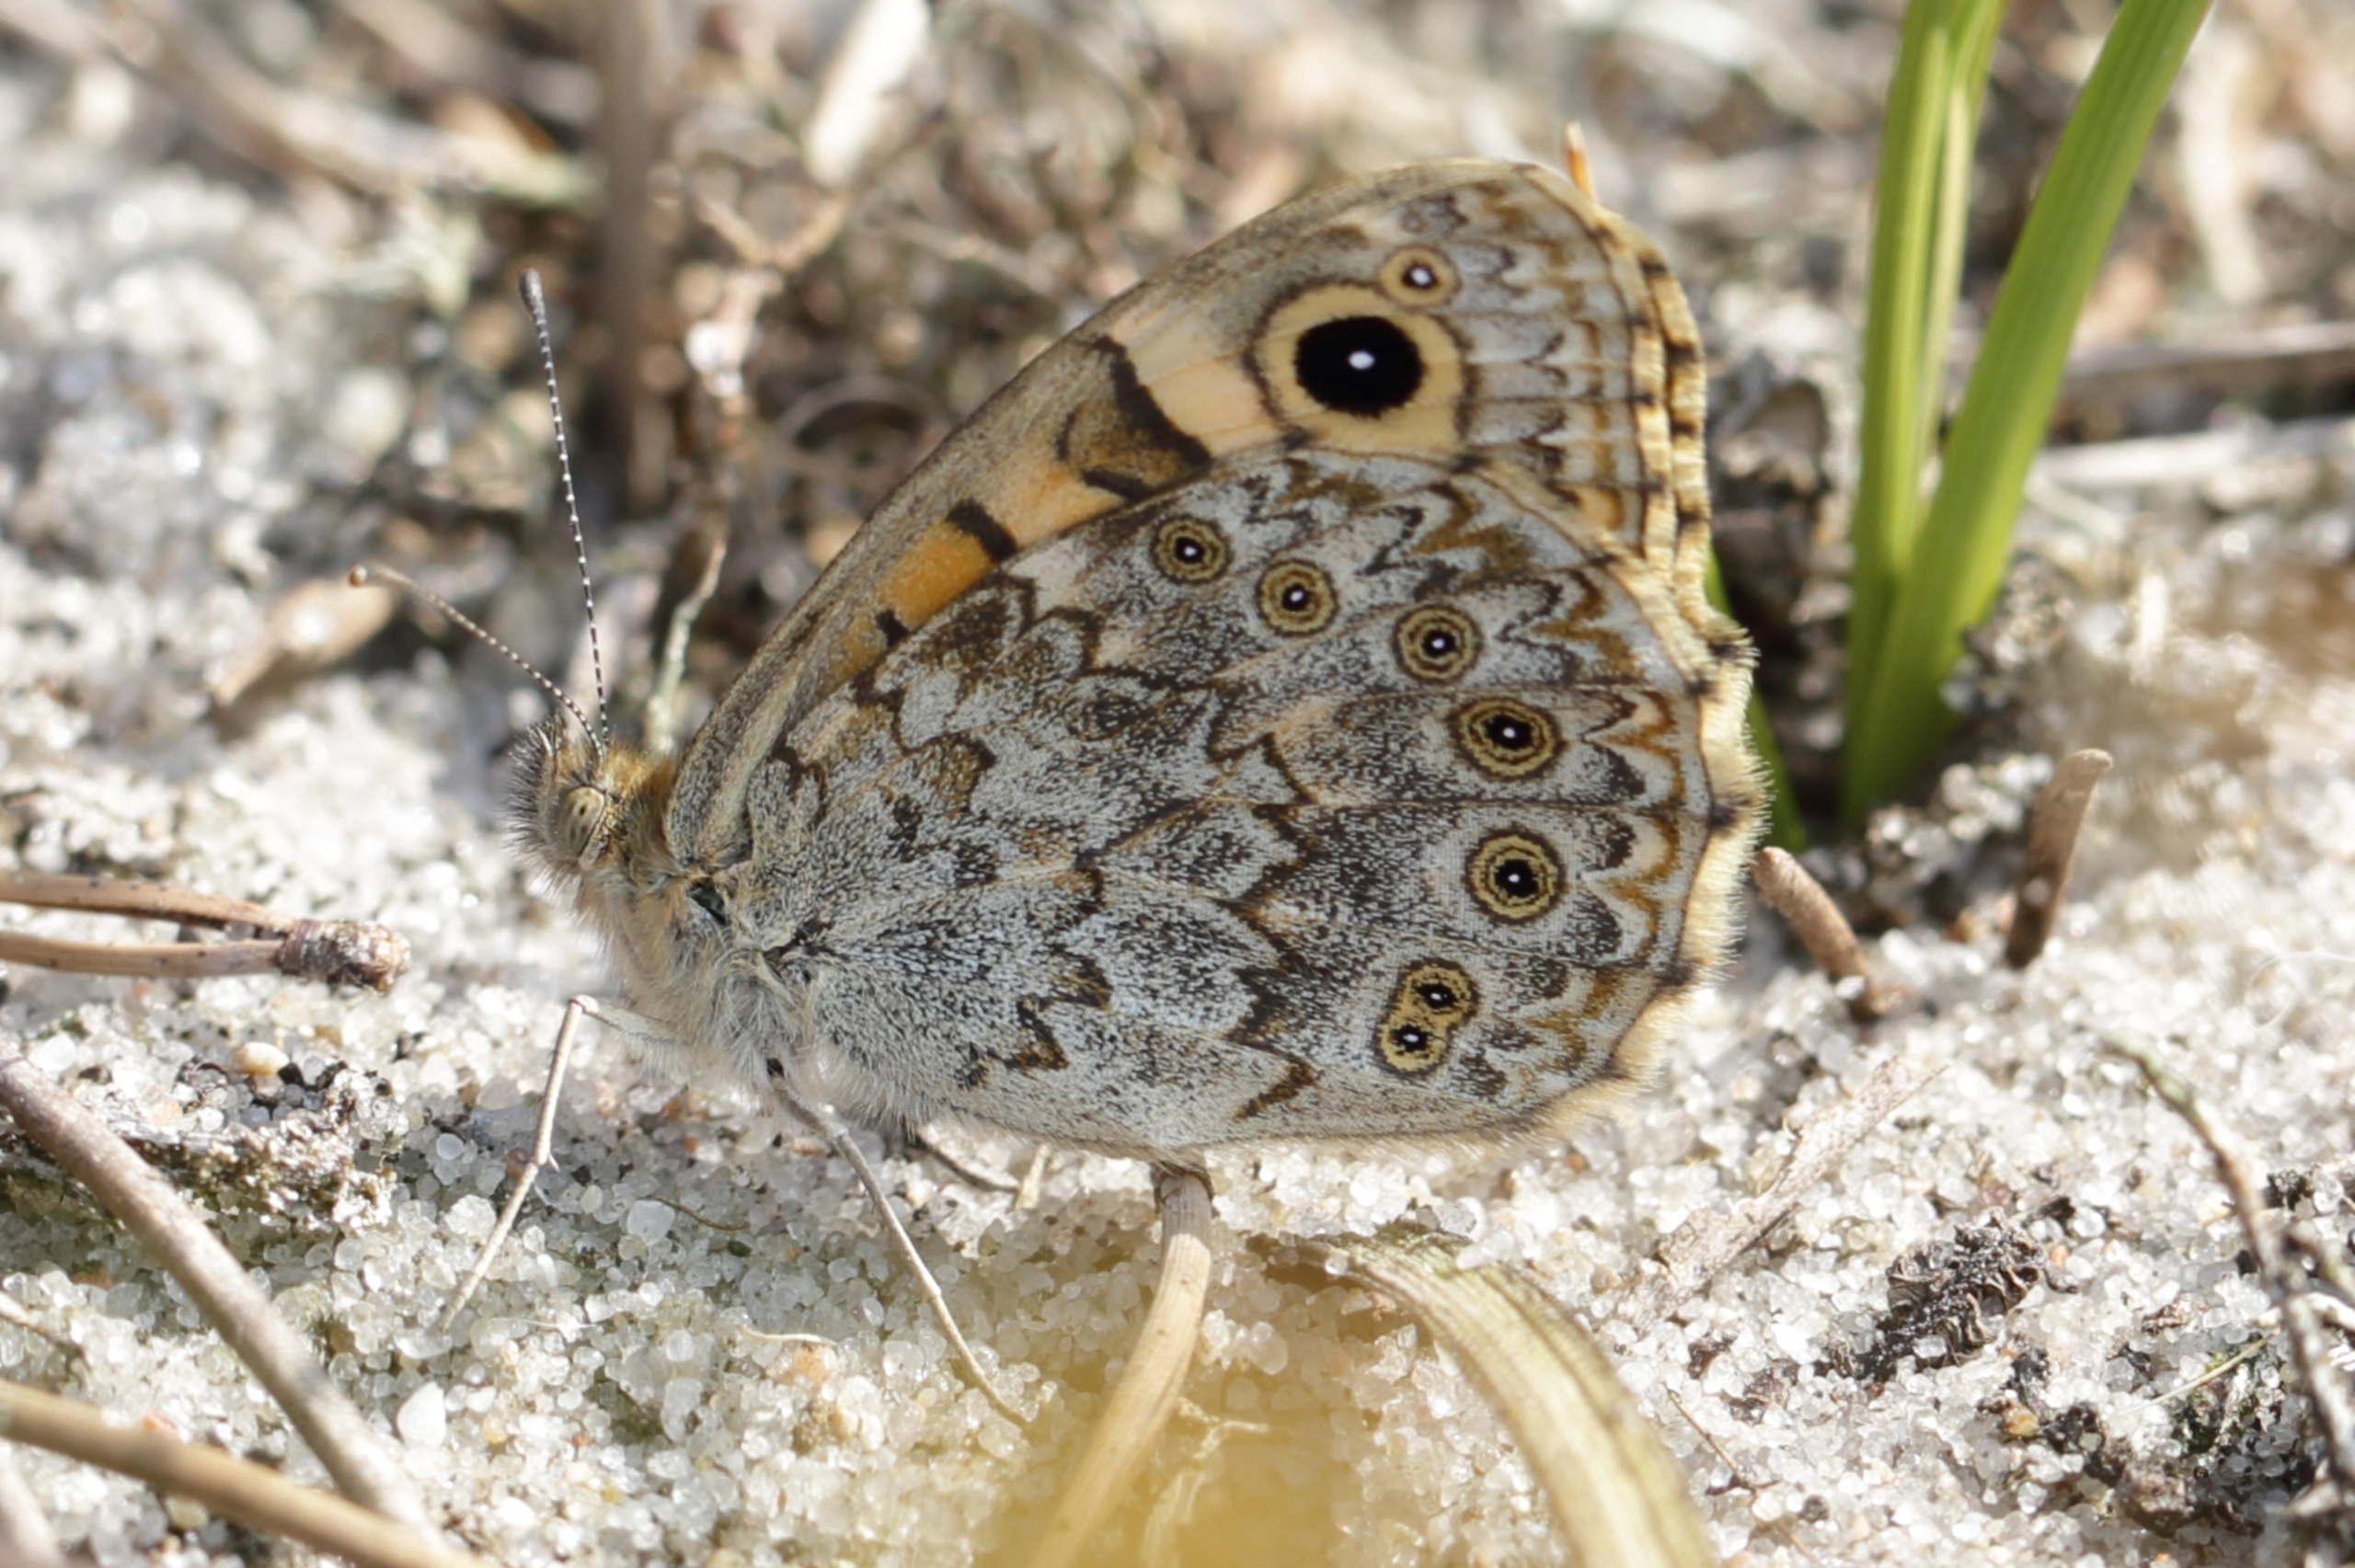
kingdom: Animalia
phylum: Arthropoda
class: Insecta
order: Lepidoptera
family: Nymphalidae
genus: Pararge
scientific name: Pararge Lasiommata megera
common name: Vejrandøje
